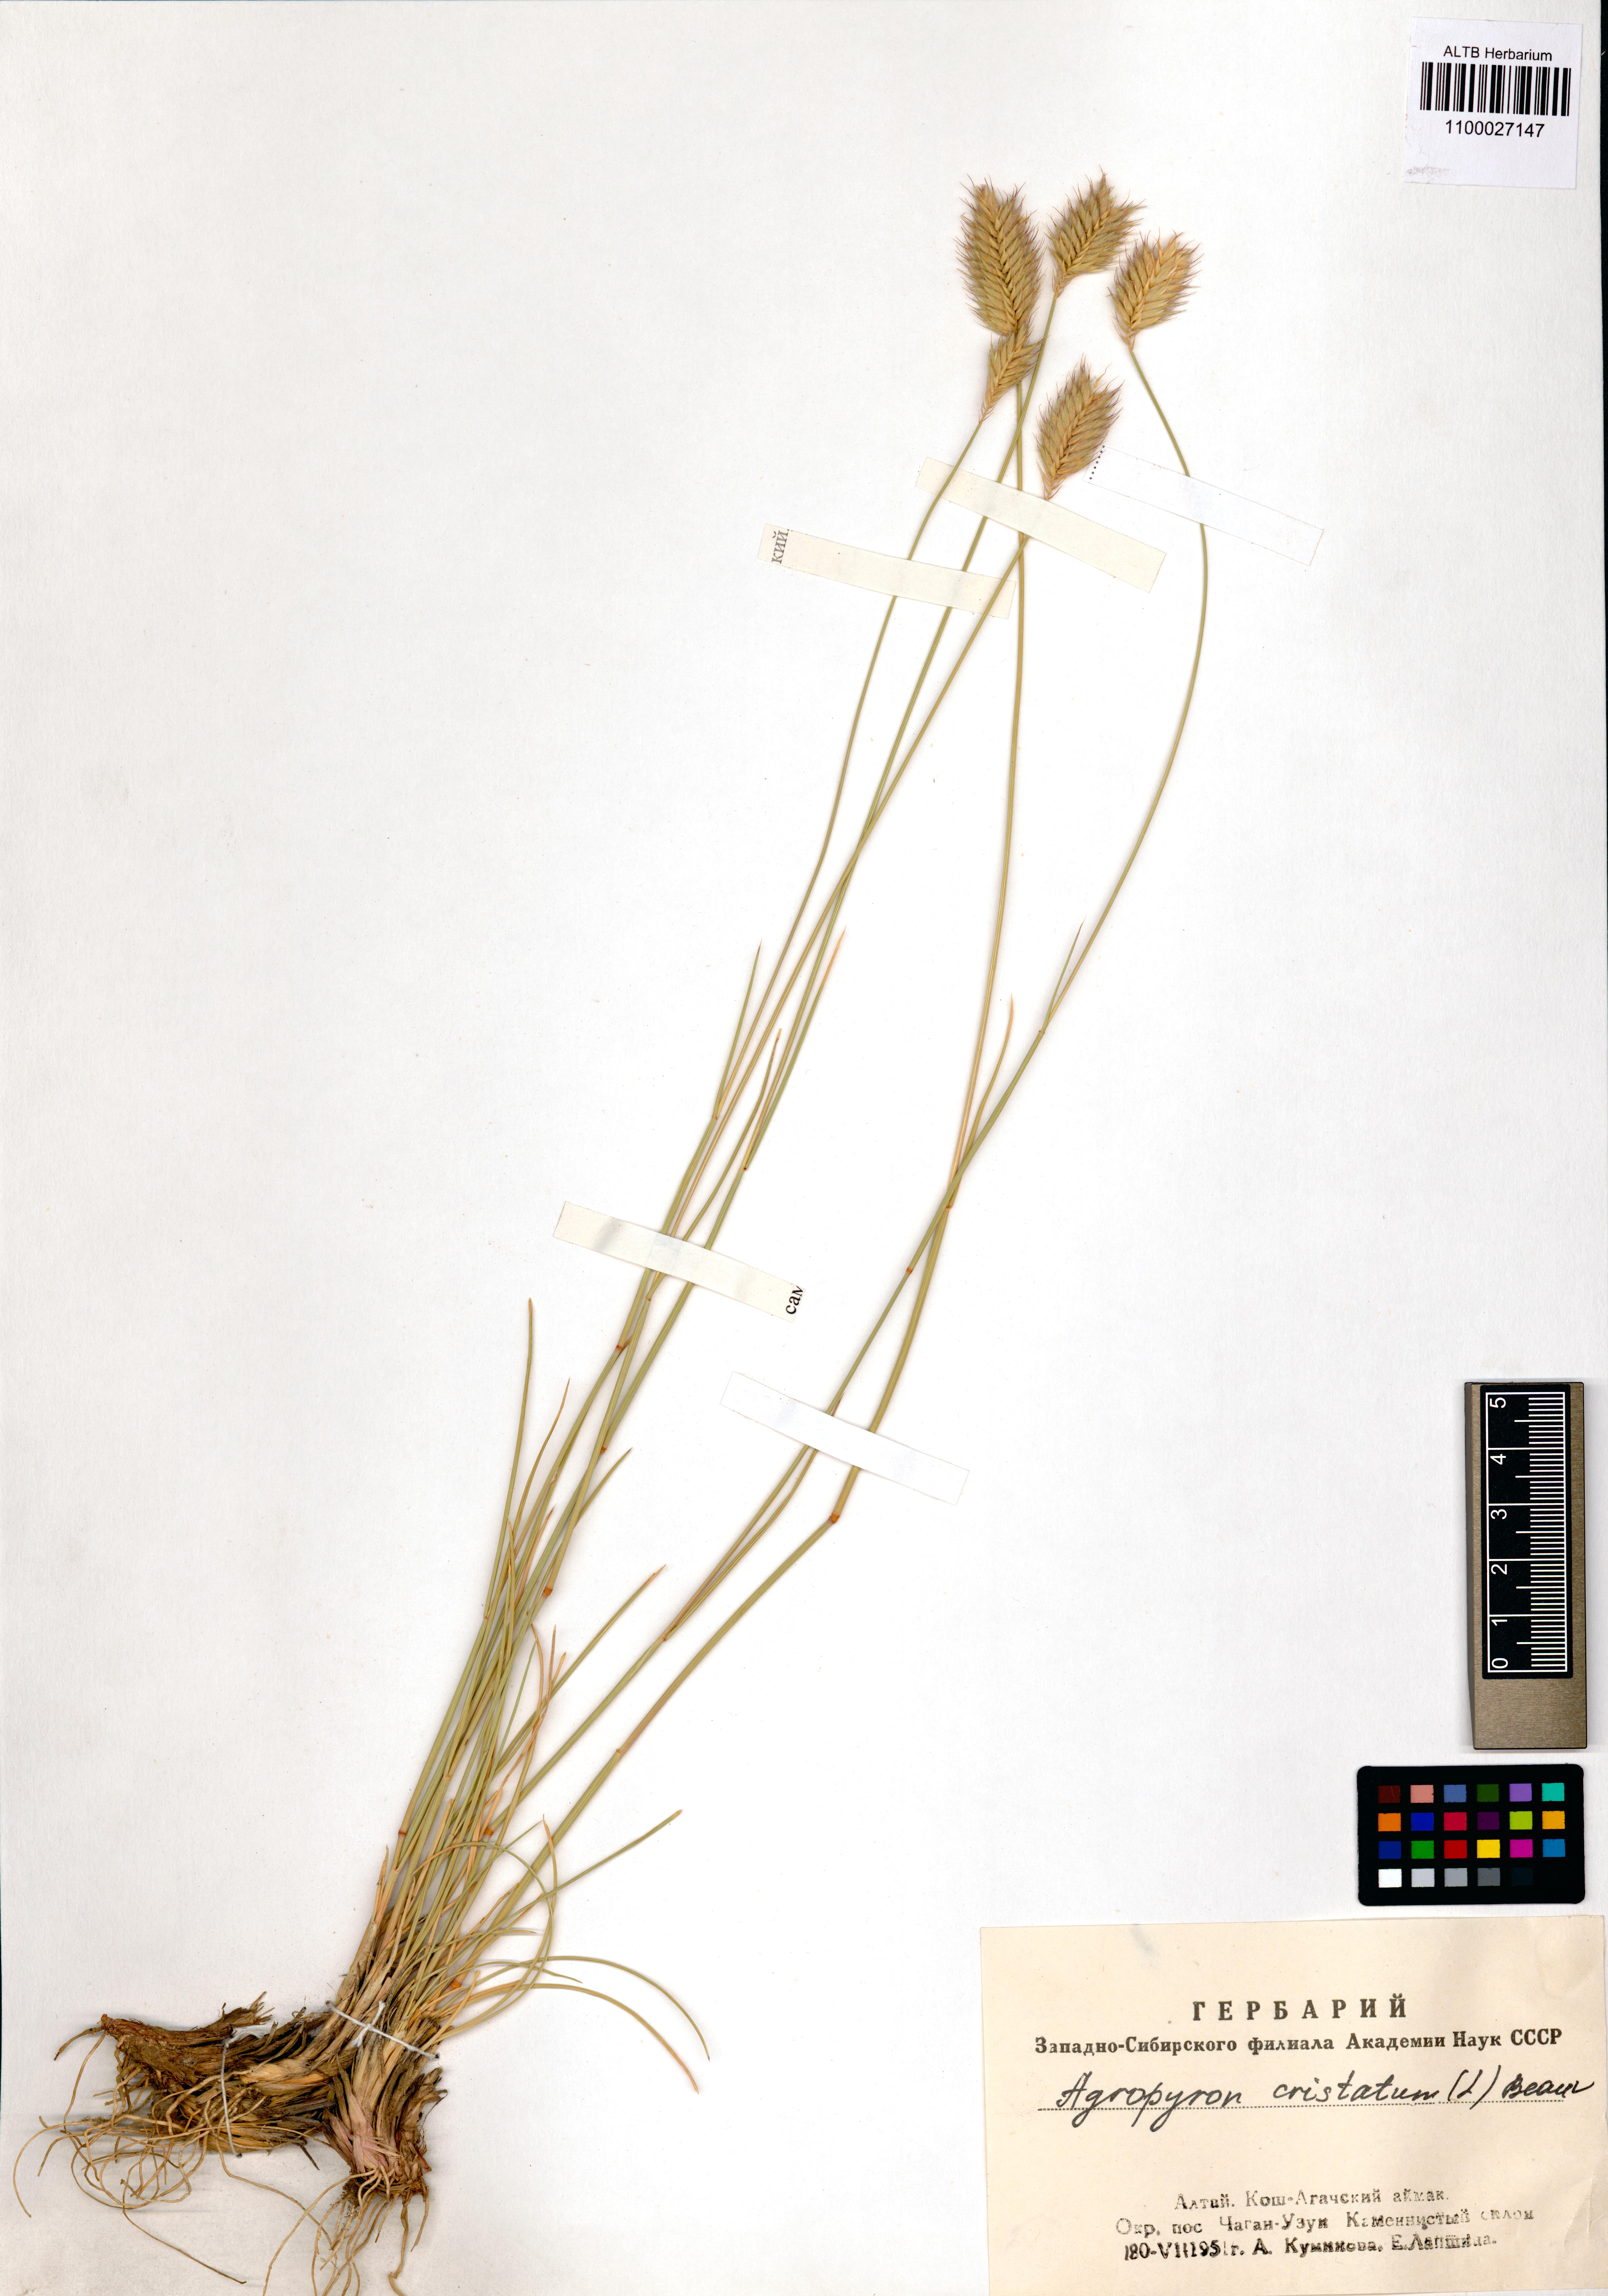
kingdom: Plantae
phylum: Tracheophyta
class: Liliopsida
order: Poales
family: Poaceae
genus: Agropyron
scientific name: Agropyron cristatum
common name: Crested wheatgrass
